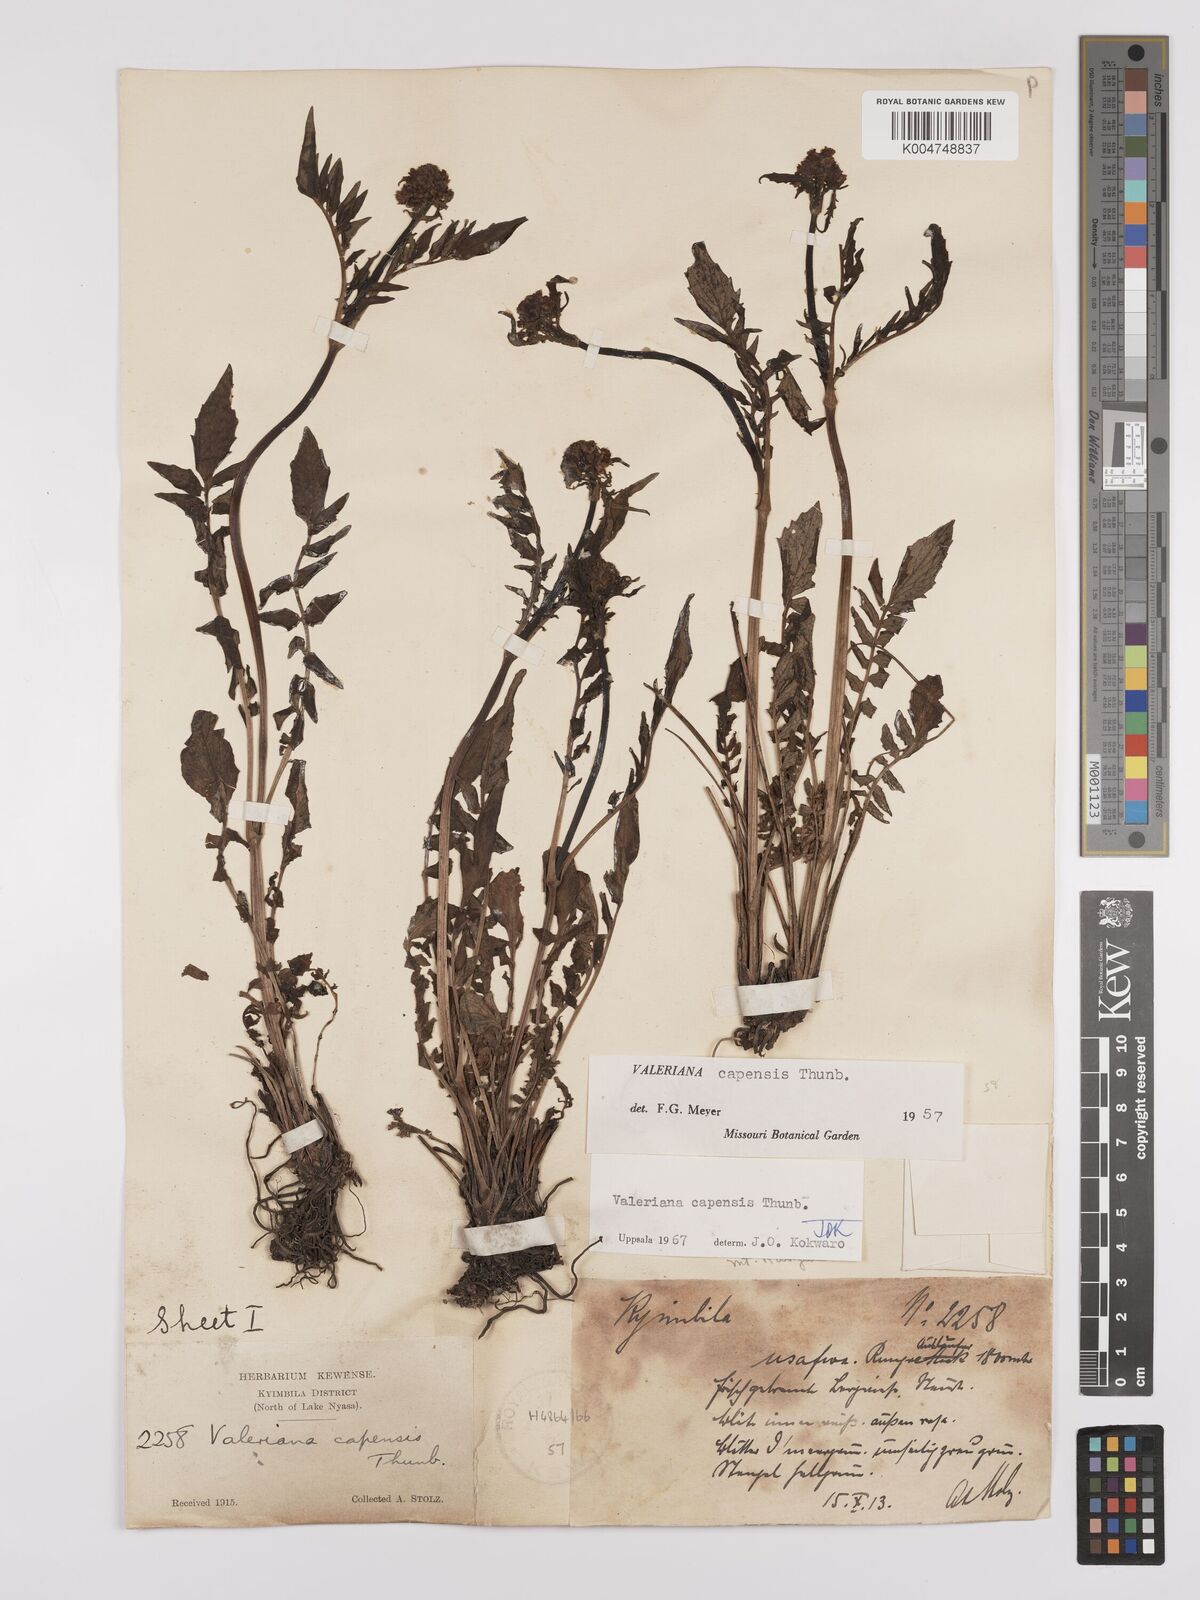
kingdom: Plantae
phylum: Tracheophyta
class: Magnoliopsida
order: Dipsacales
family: Caprifoliaceae
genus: Valeriana
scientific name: Valeriana capensis
